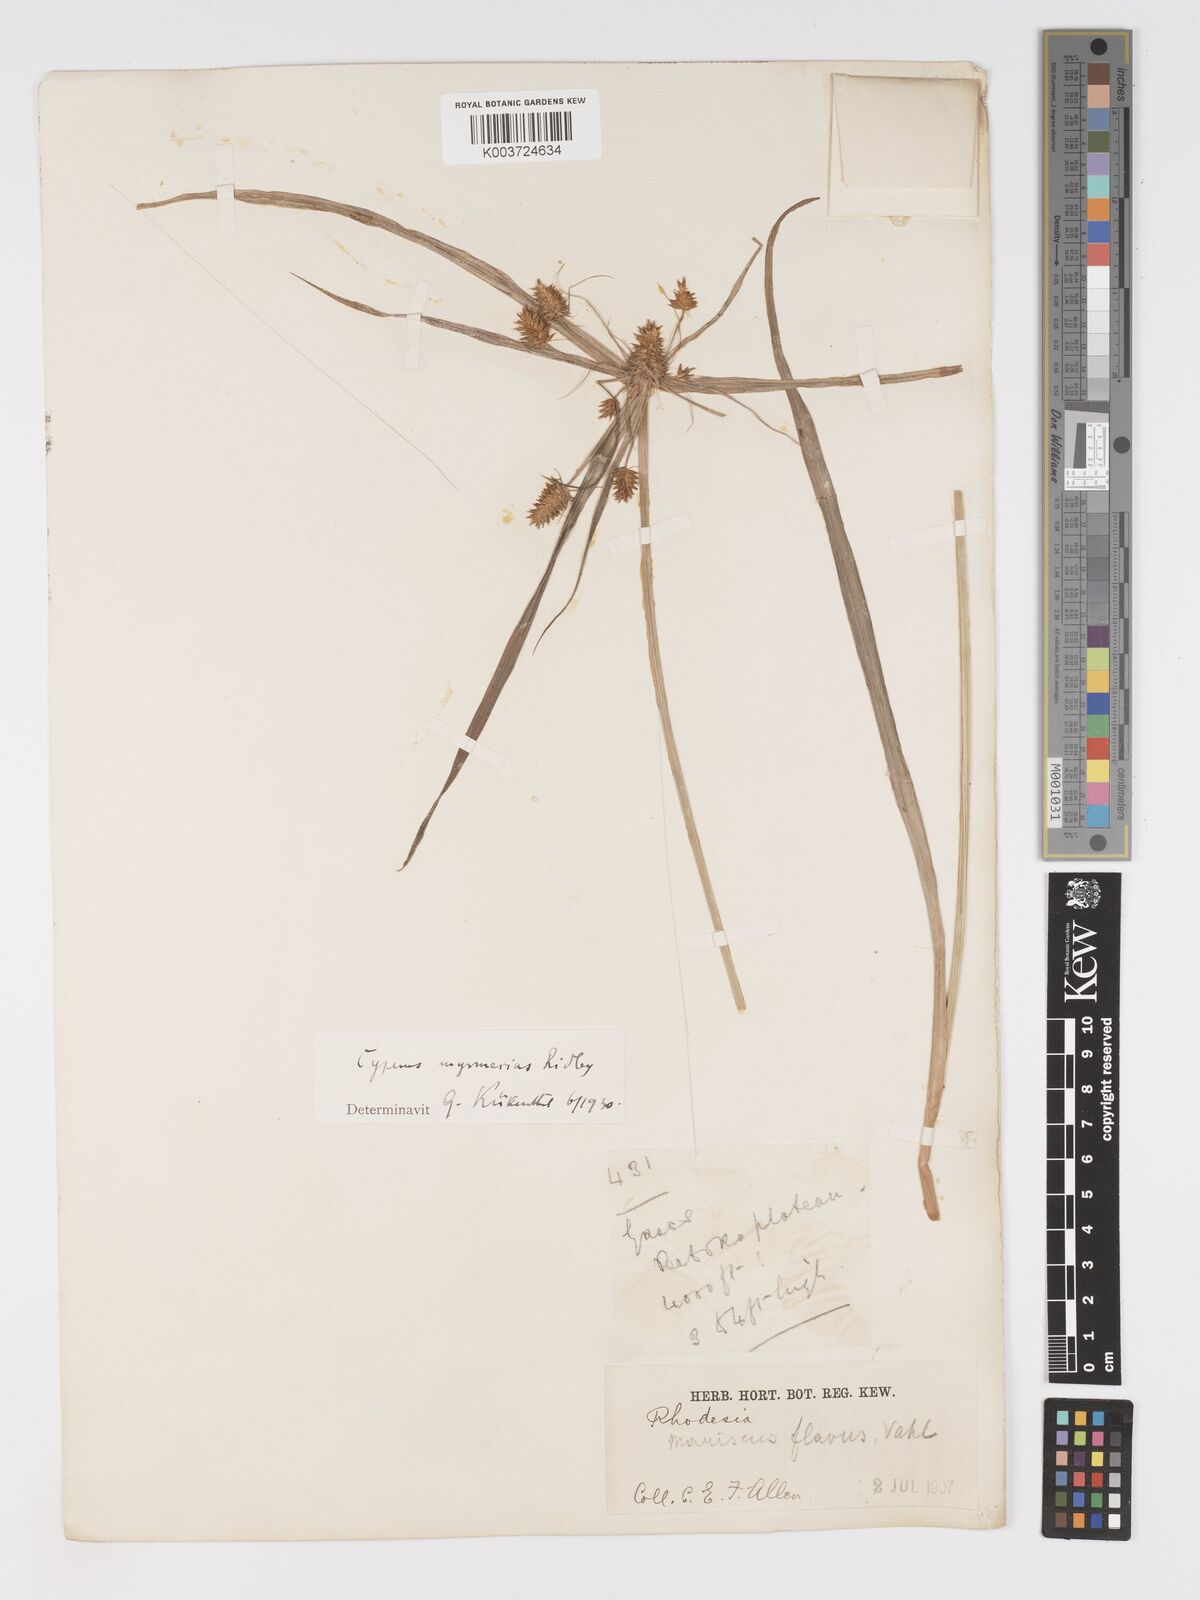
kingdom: Plantae
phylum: Tracheophyta
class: Liliopsida
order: Poales
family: Cyperaceae
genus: Cyperus
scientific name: Cyperus myrmecias
